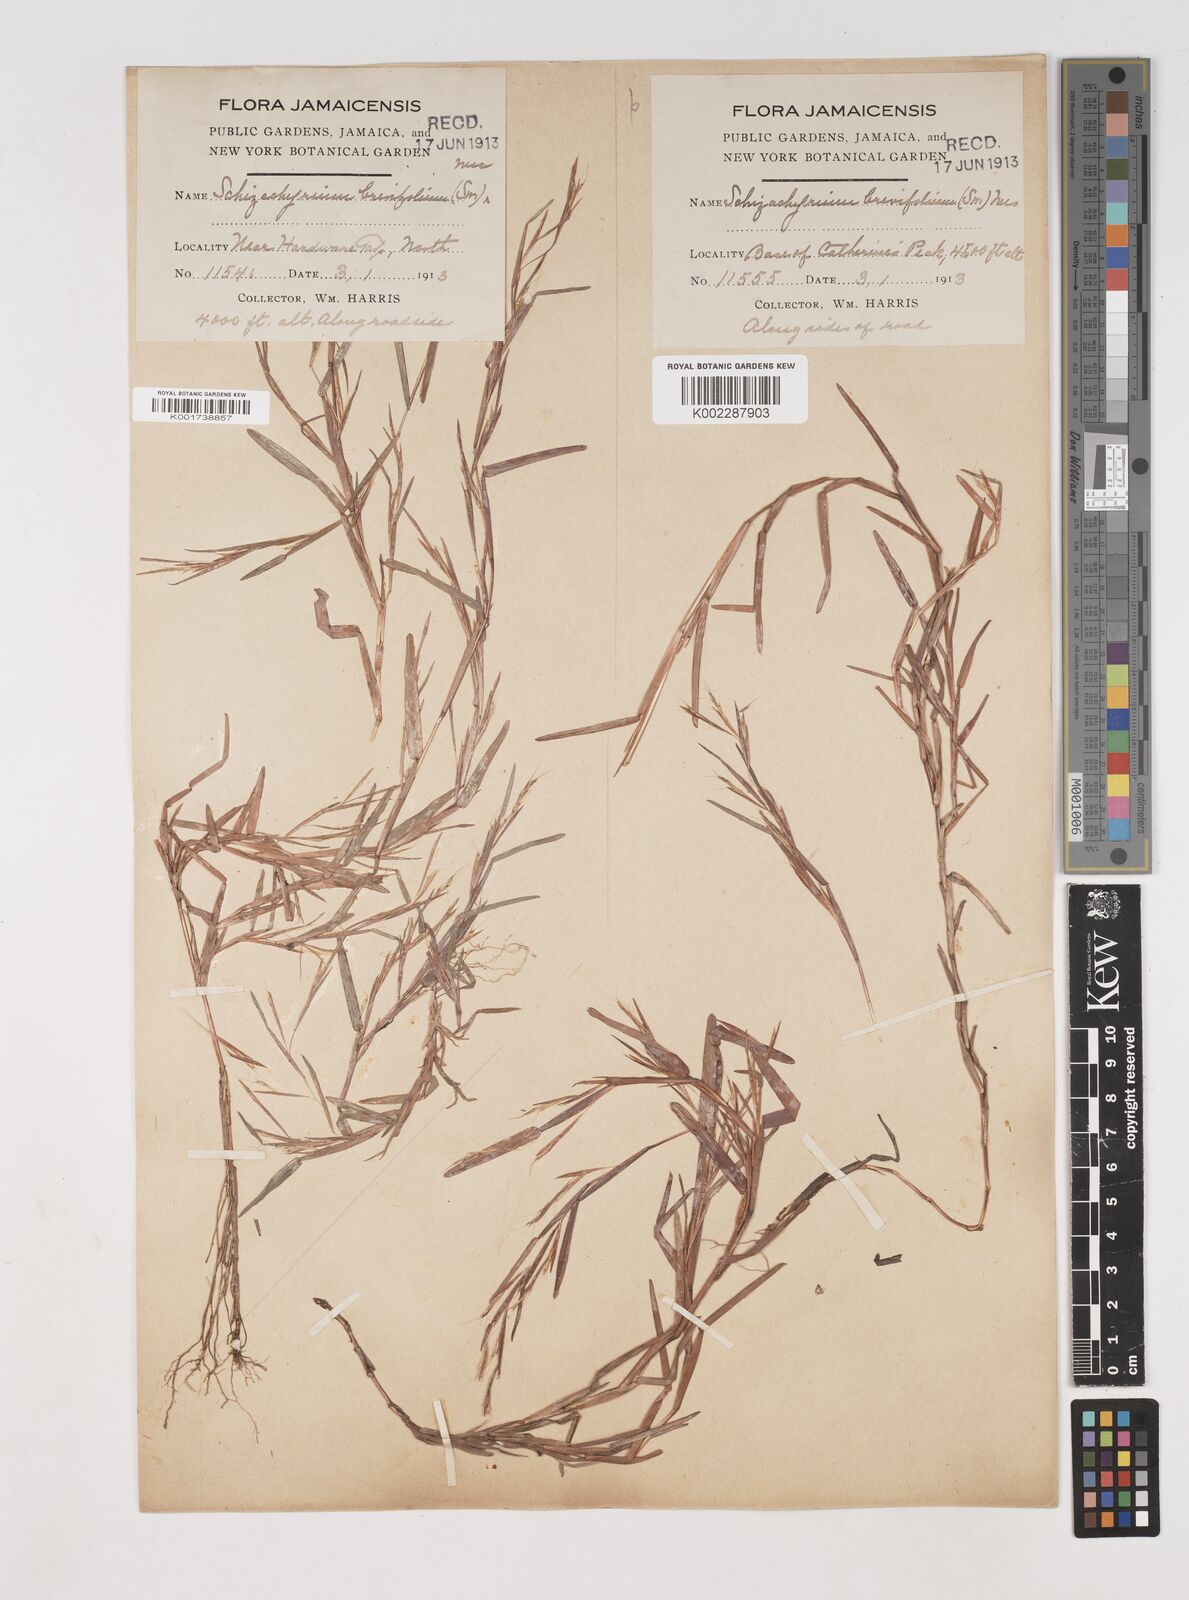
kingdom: Plantae
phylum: Tracheophyta
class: Liliopsida
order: Poales
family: Poaceae
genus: Schizachyrium
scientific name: Schizachyrium brevifolium
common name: Serillo dulce
